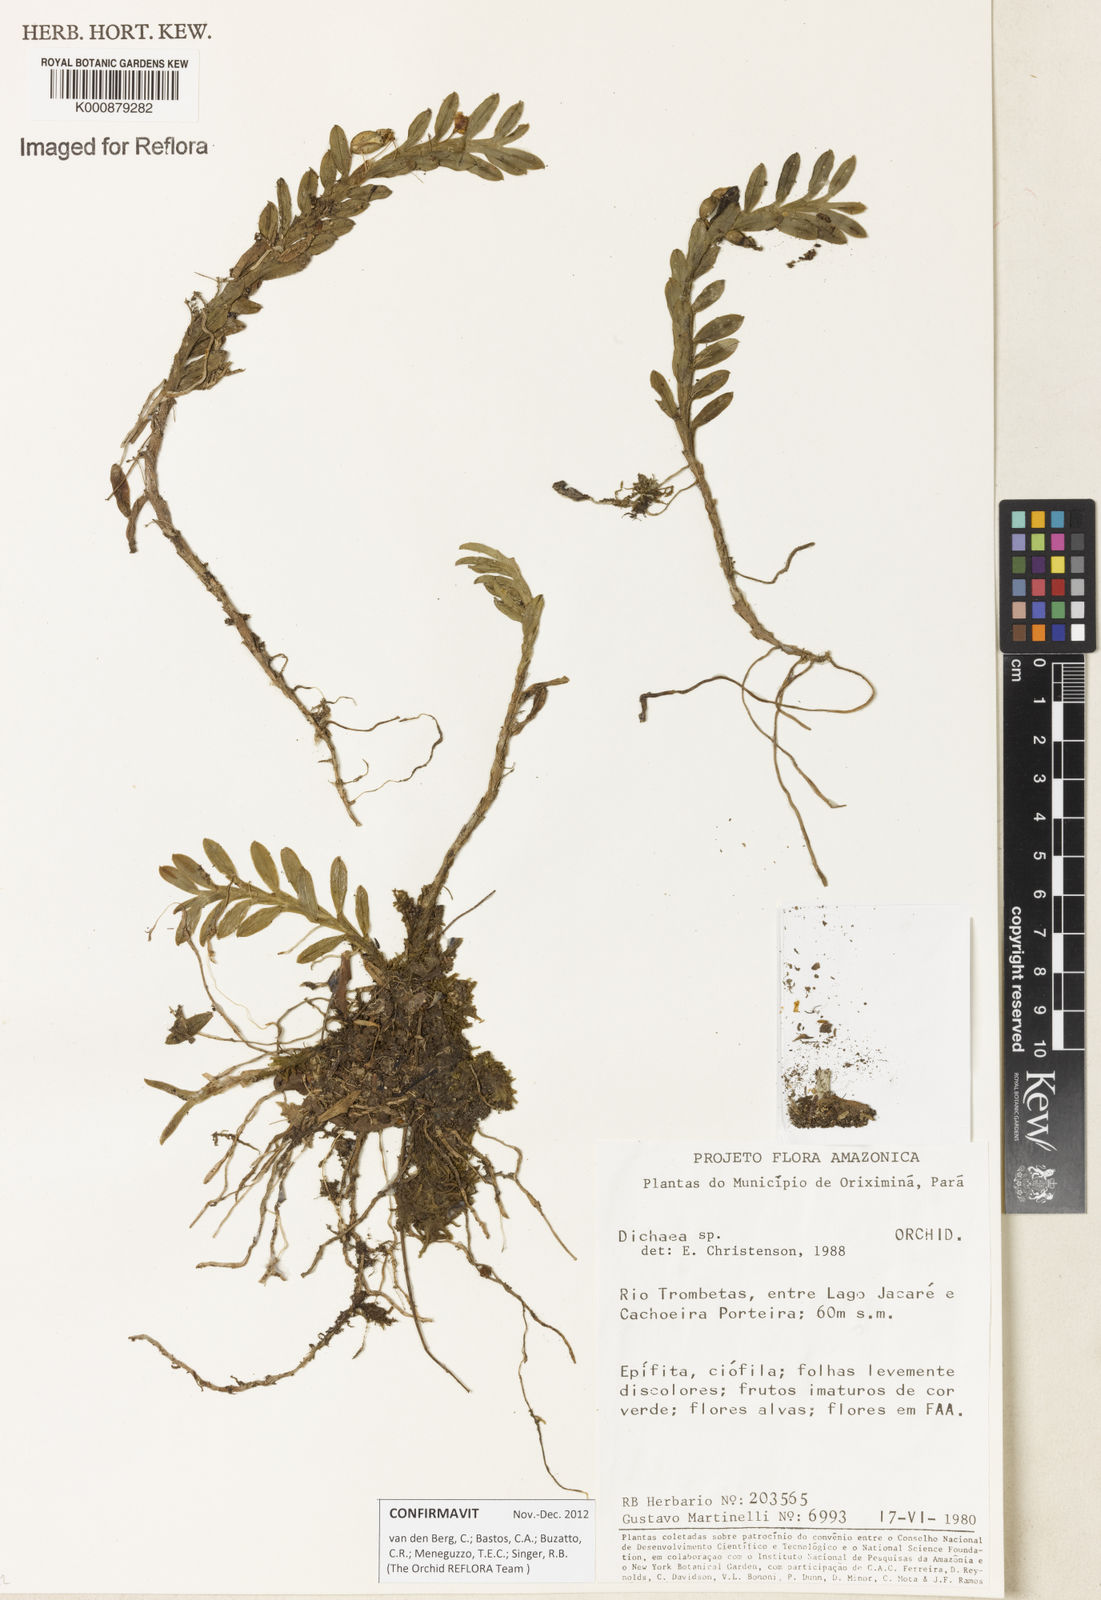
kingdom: Plantae
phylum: Tracheophyta
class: Liliopsida
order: Asparagales
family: Orchidaceae
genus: Dichaea
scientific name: Dichaea
